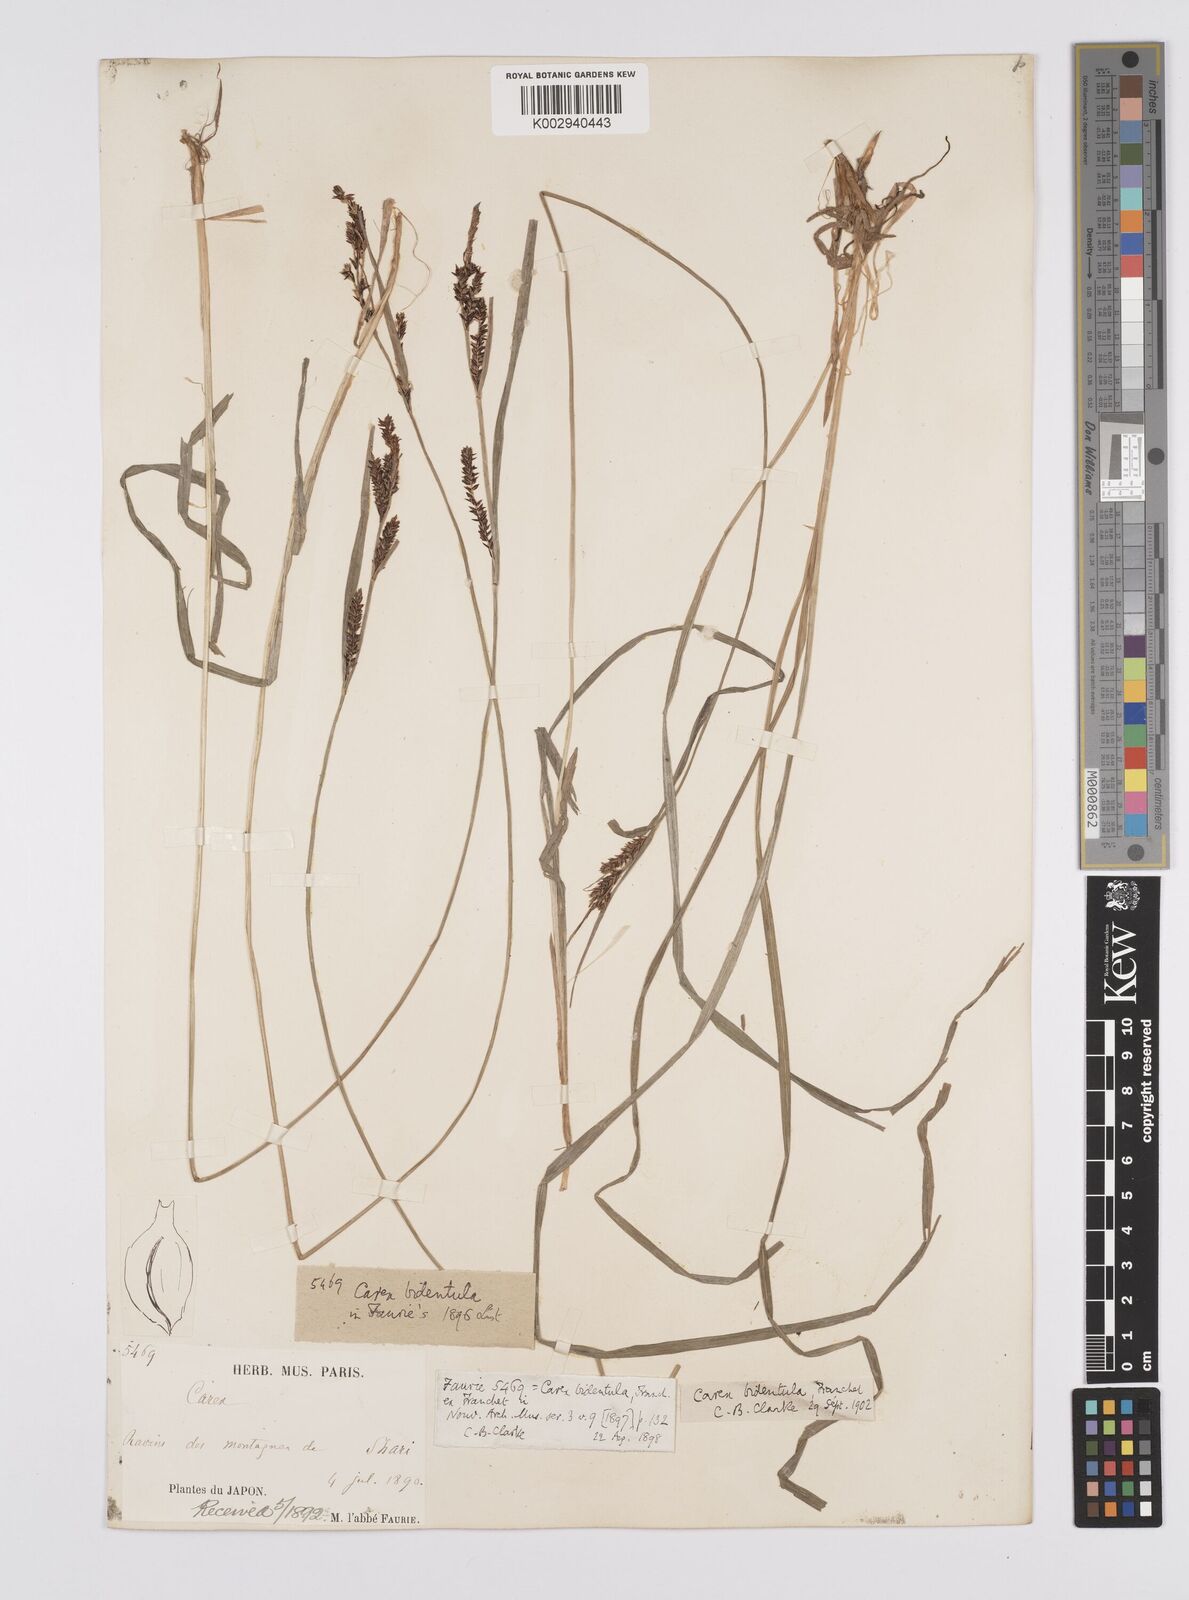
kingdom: Plantae
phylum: Tracheophyta
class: Liliopsida
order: Poales
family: Cyperaceae
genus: Carex
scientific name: Carex augustinowiczii
